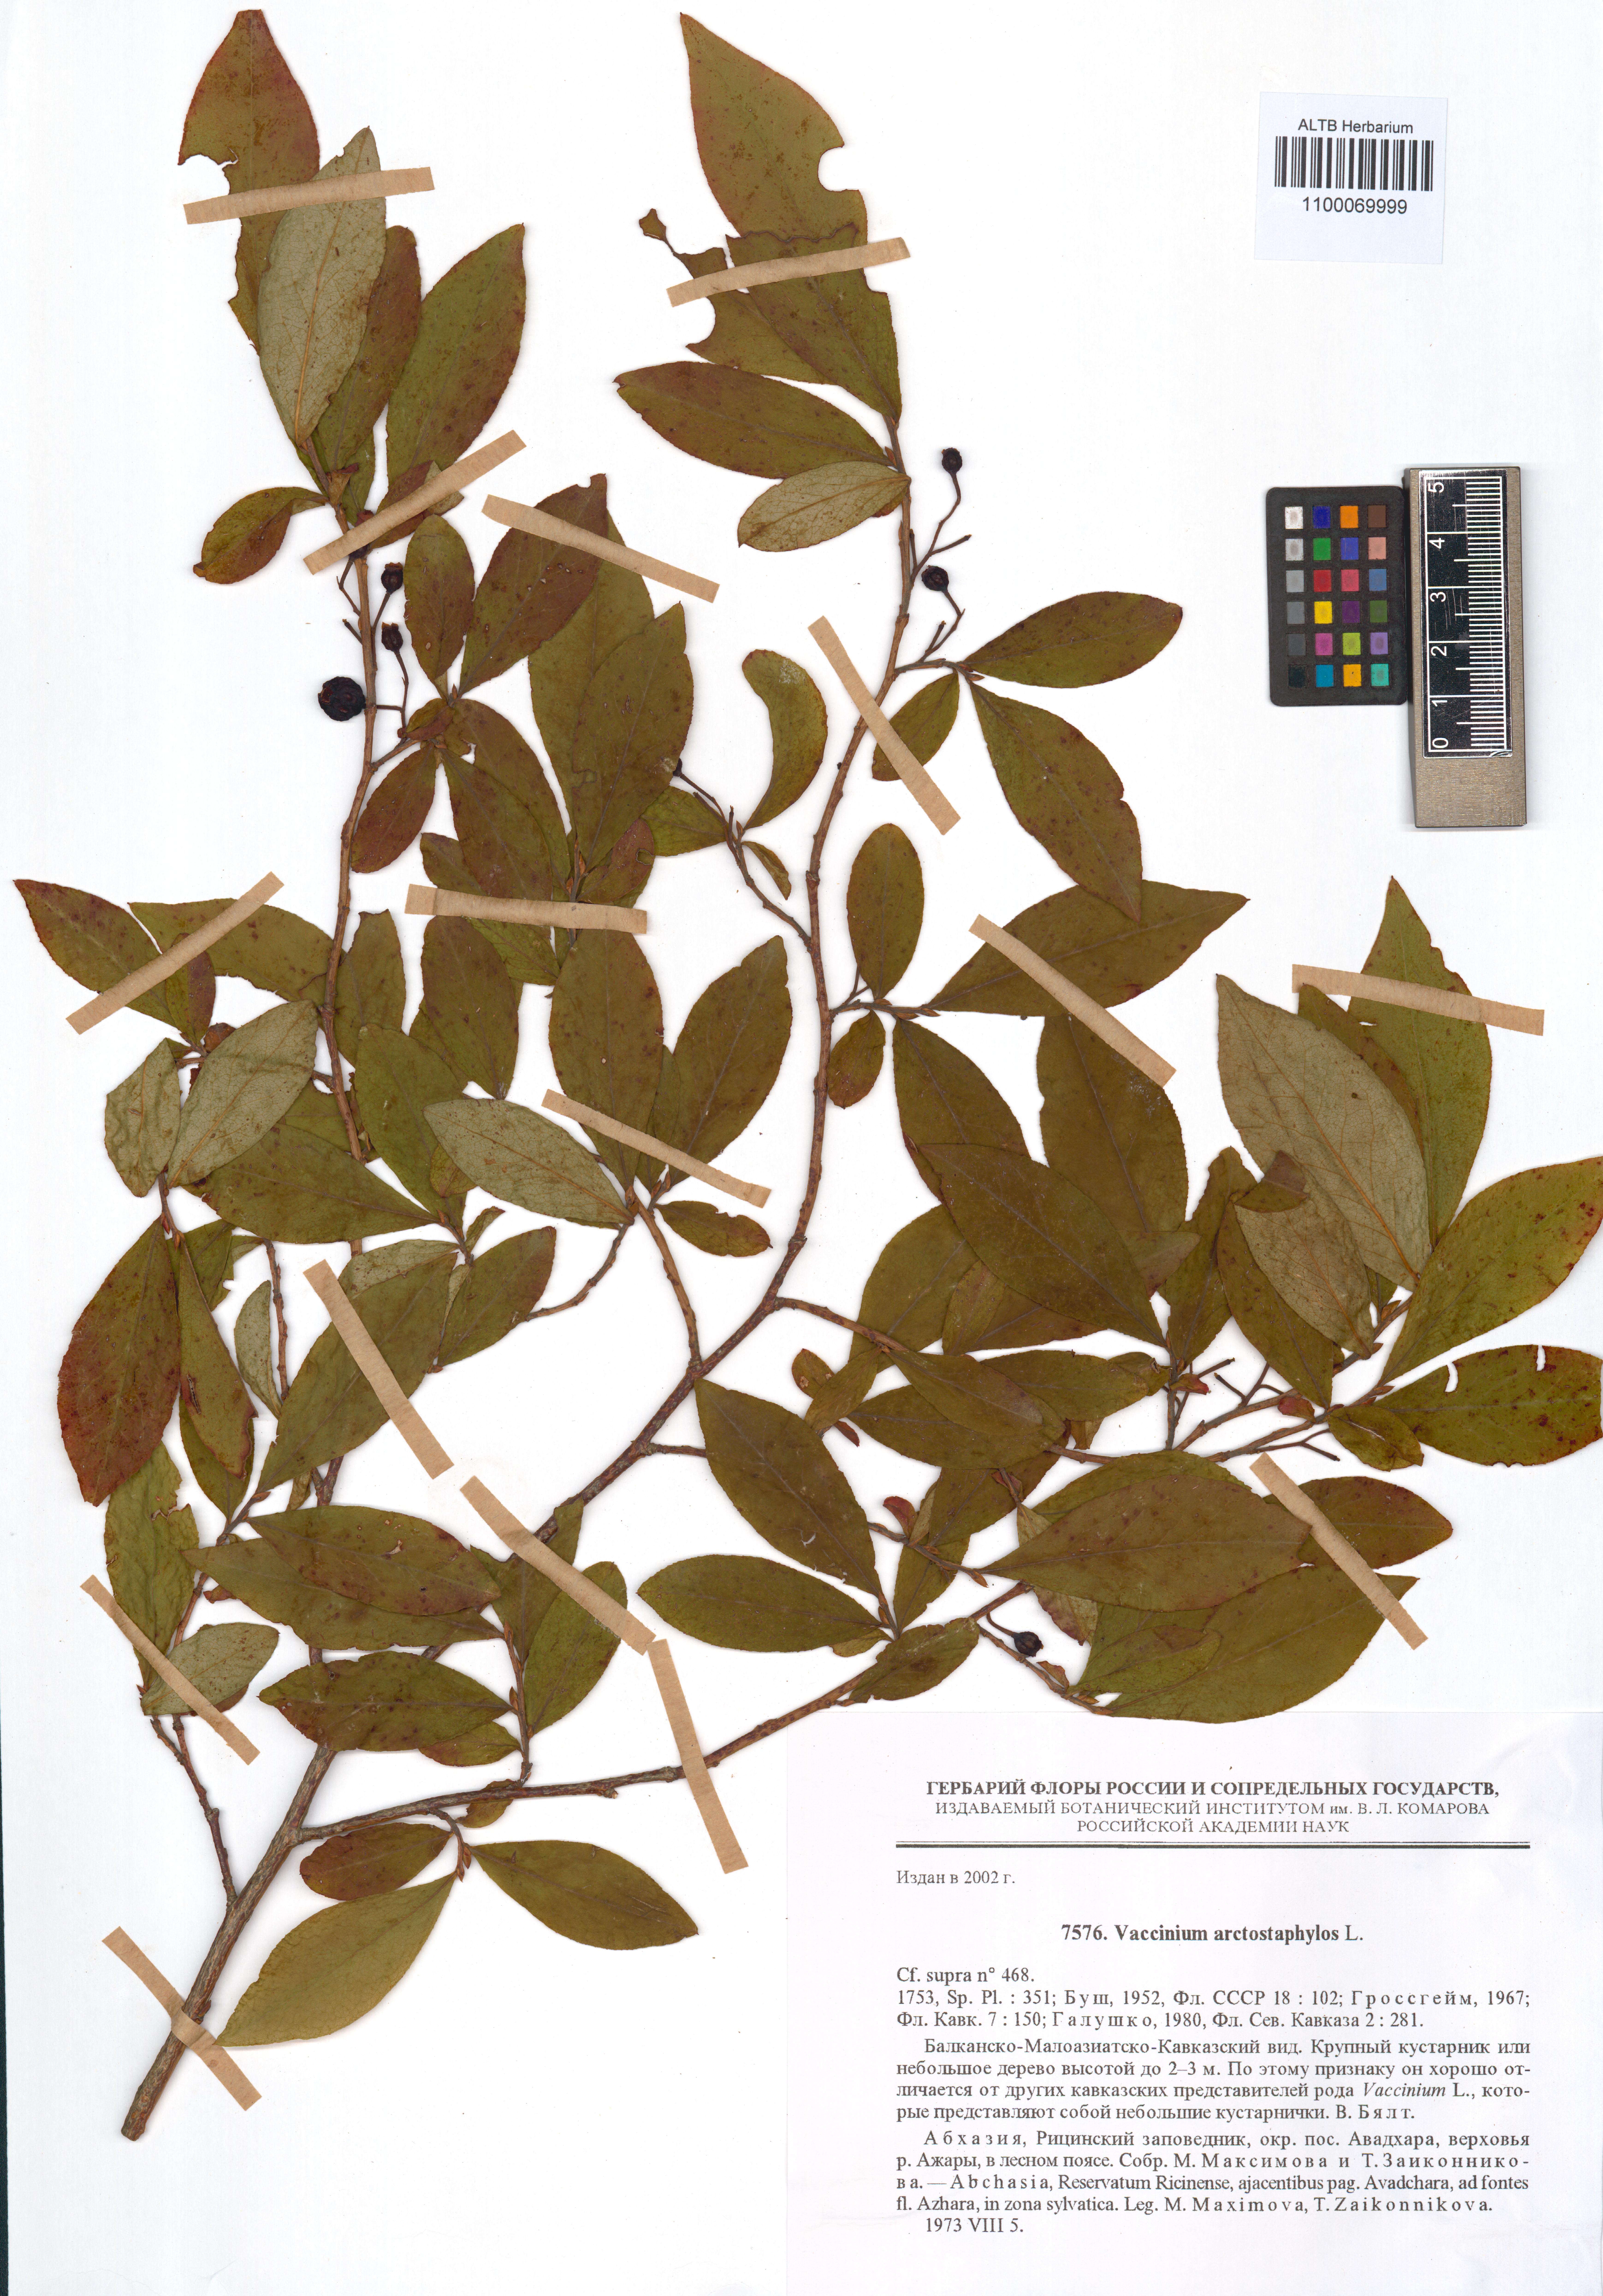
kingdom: Plantae
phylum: Tracheophyta
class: Magnoliopsida
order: Ericales
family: Ericaceae
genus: Vaccinium
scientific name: Vaccinium arctostaphylos
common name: Caucasian whortleberry
